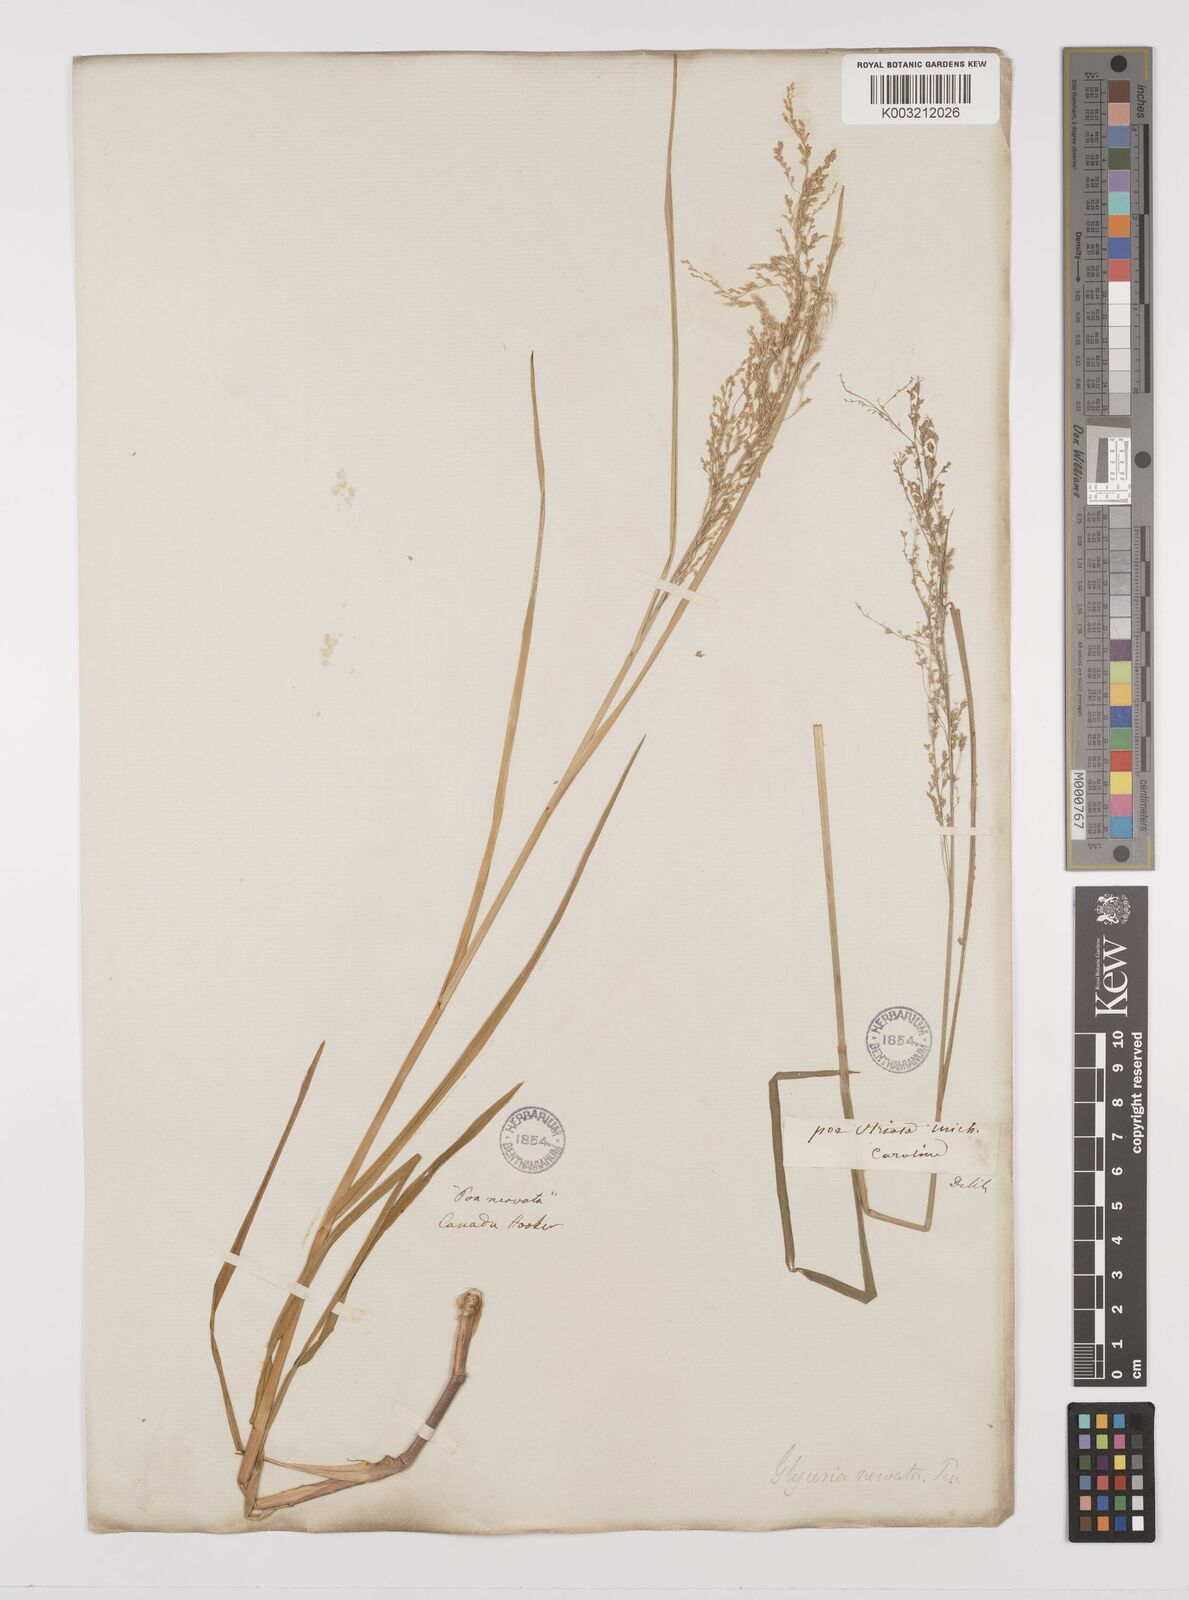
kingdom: Plantae
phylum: Tracheophyta
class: Liliopsida
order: Poales
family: Poaceae
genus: Glyceria
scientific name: Glyceria striata
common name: Fowl manna grass
